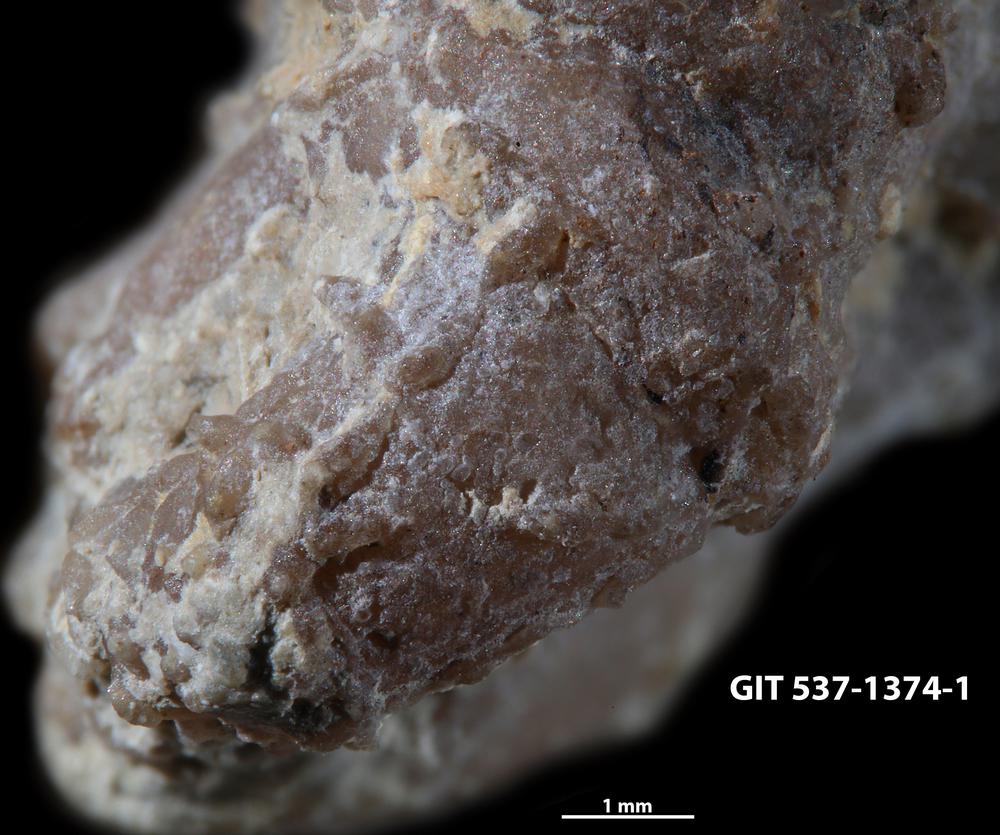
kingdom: Animalia
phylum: Bryozoa
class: Stenolaemata
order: Cyclostomatida
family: Corynotrypidae
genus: Corynotrypa
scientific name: Corynotrypa schucherti
